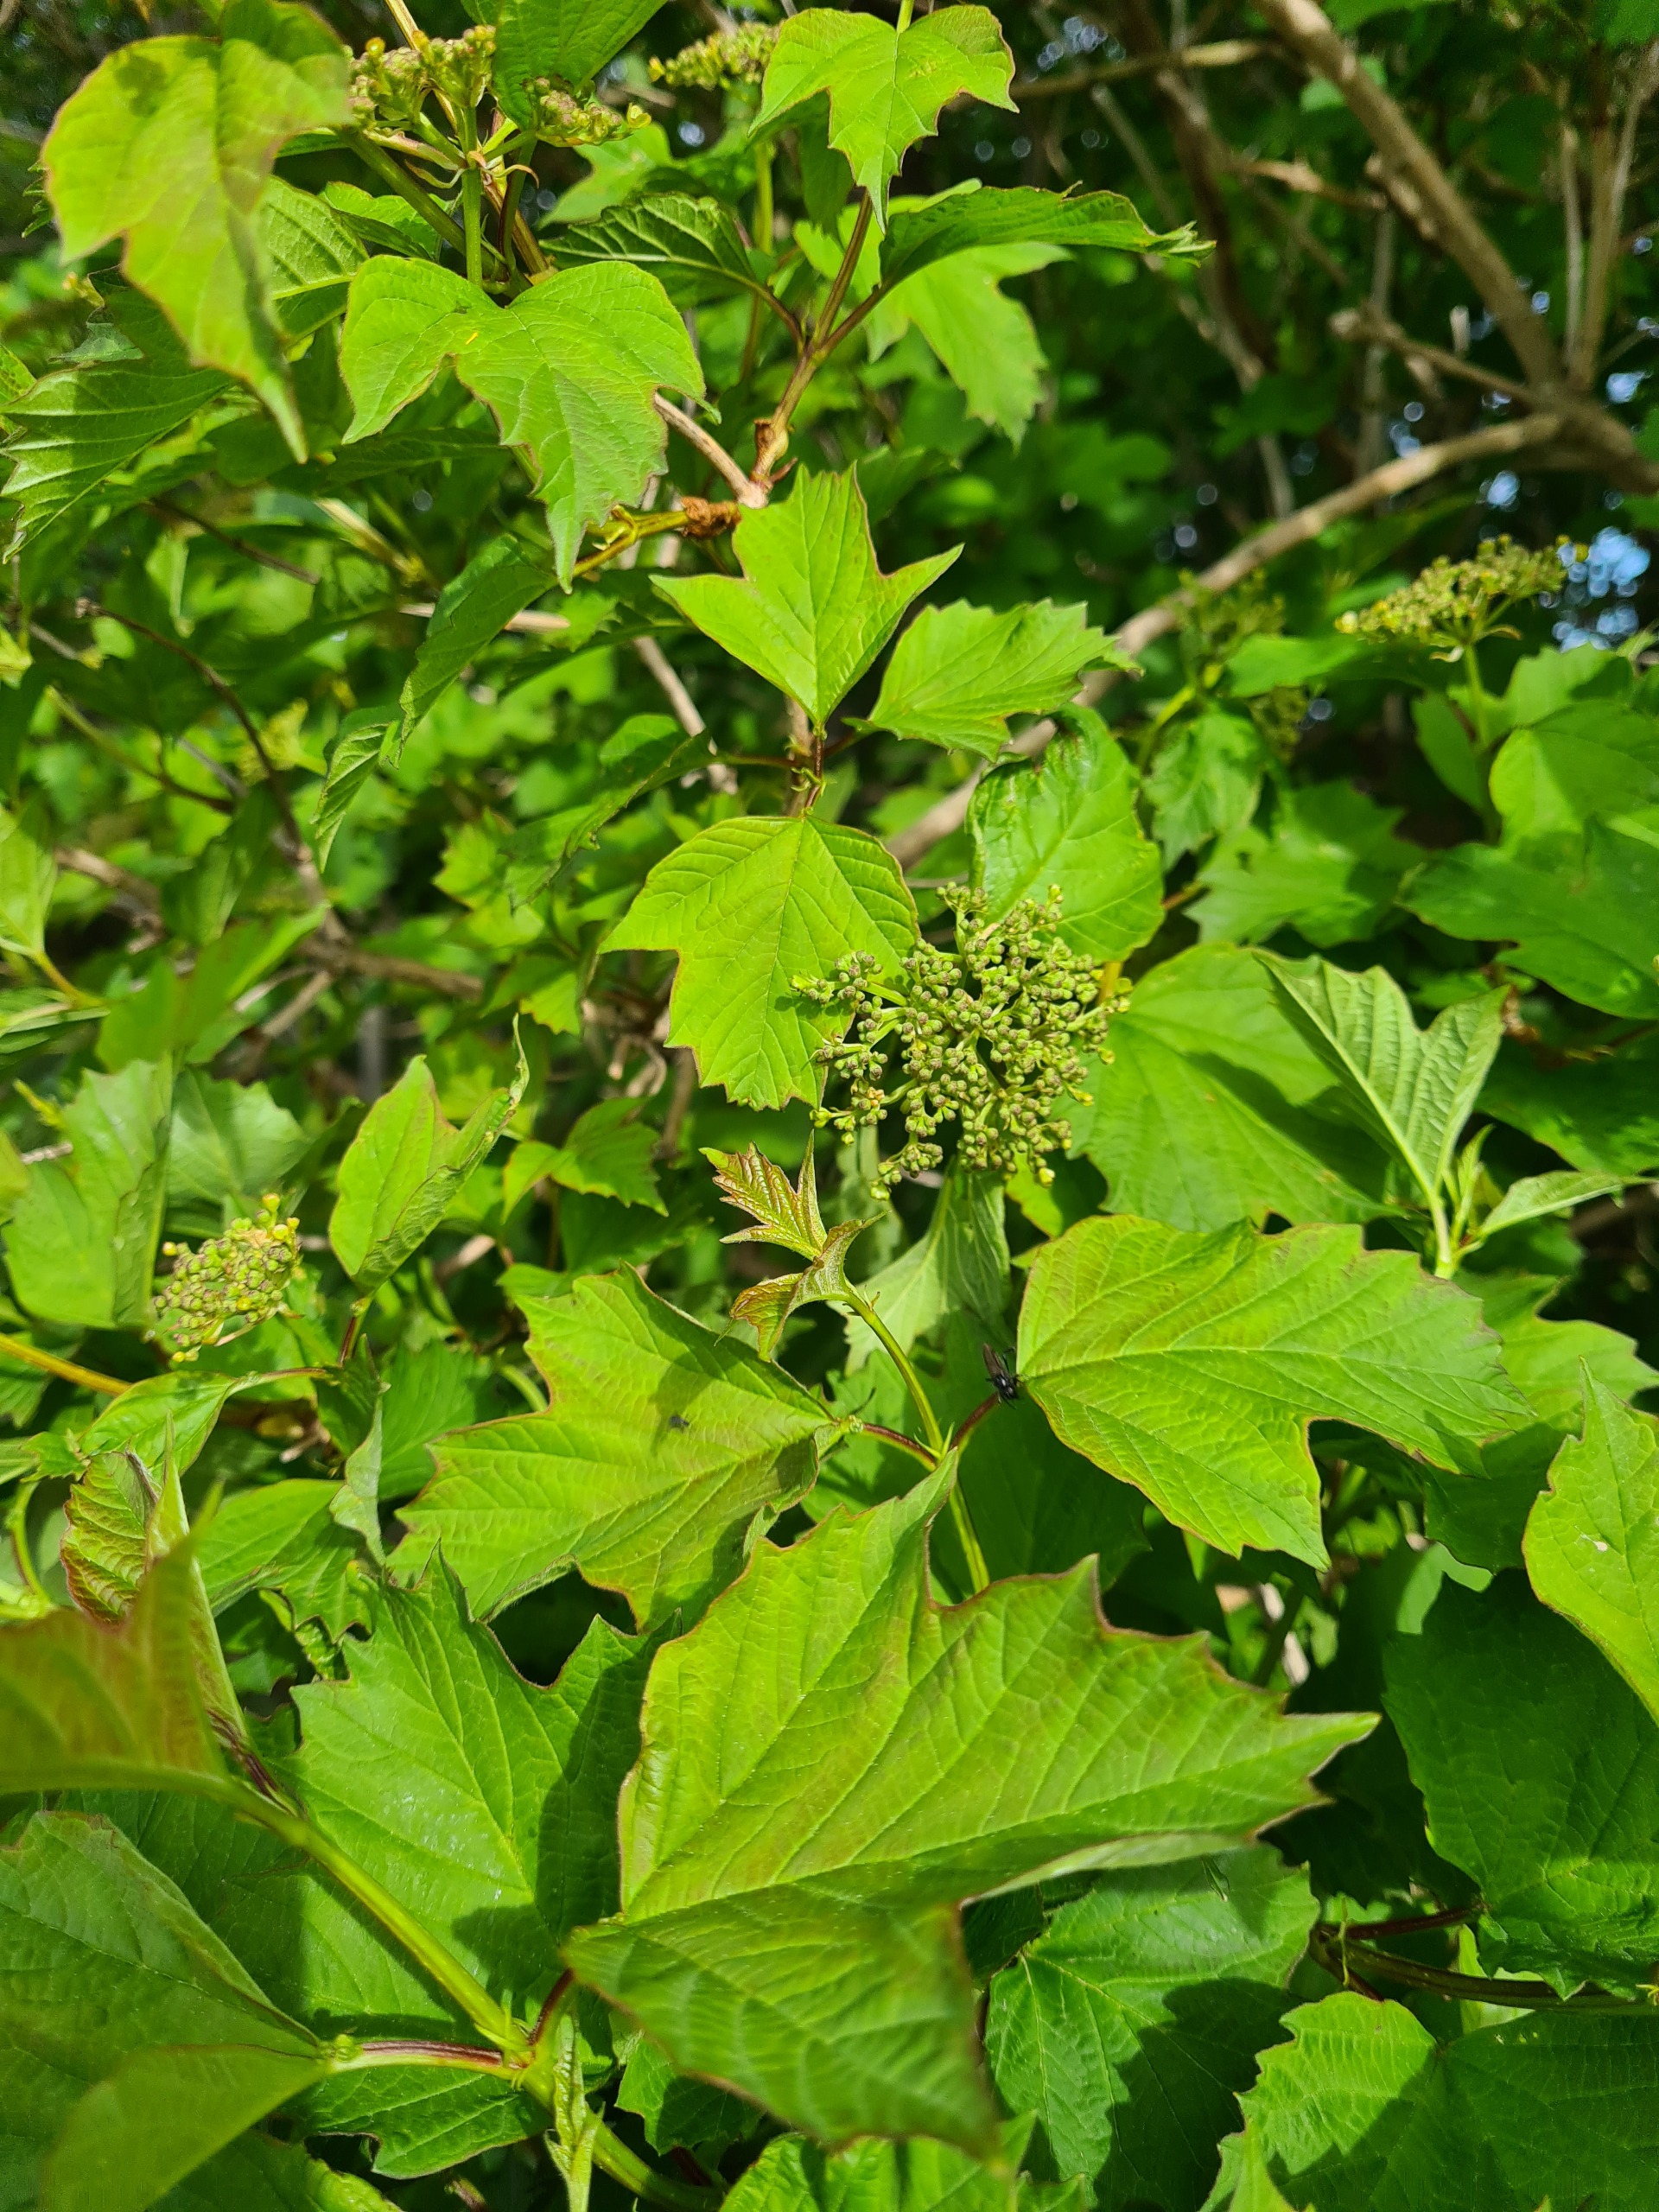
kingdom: Plantae
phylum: Tracheophyta
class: Magnoliopsida
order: Dipsacales
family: Viburnaceae
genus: Viburnum
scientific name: Viburnum opulus
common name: Kvalkved
